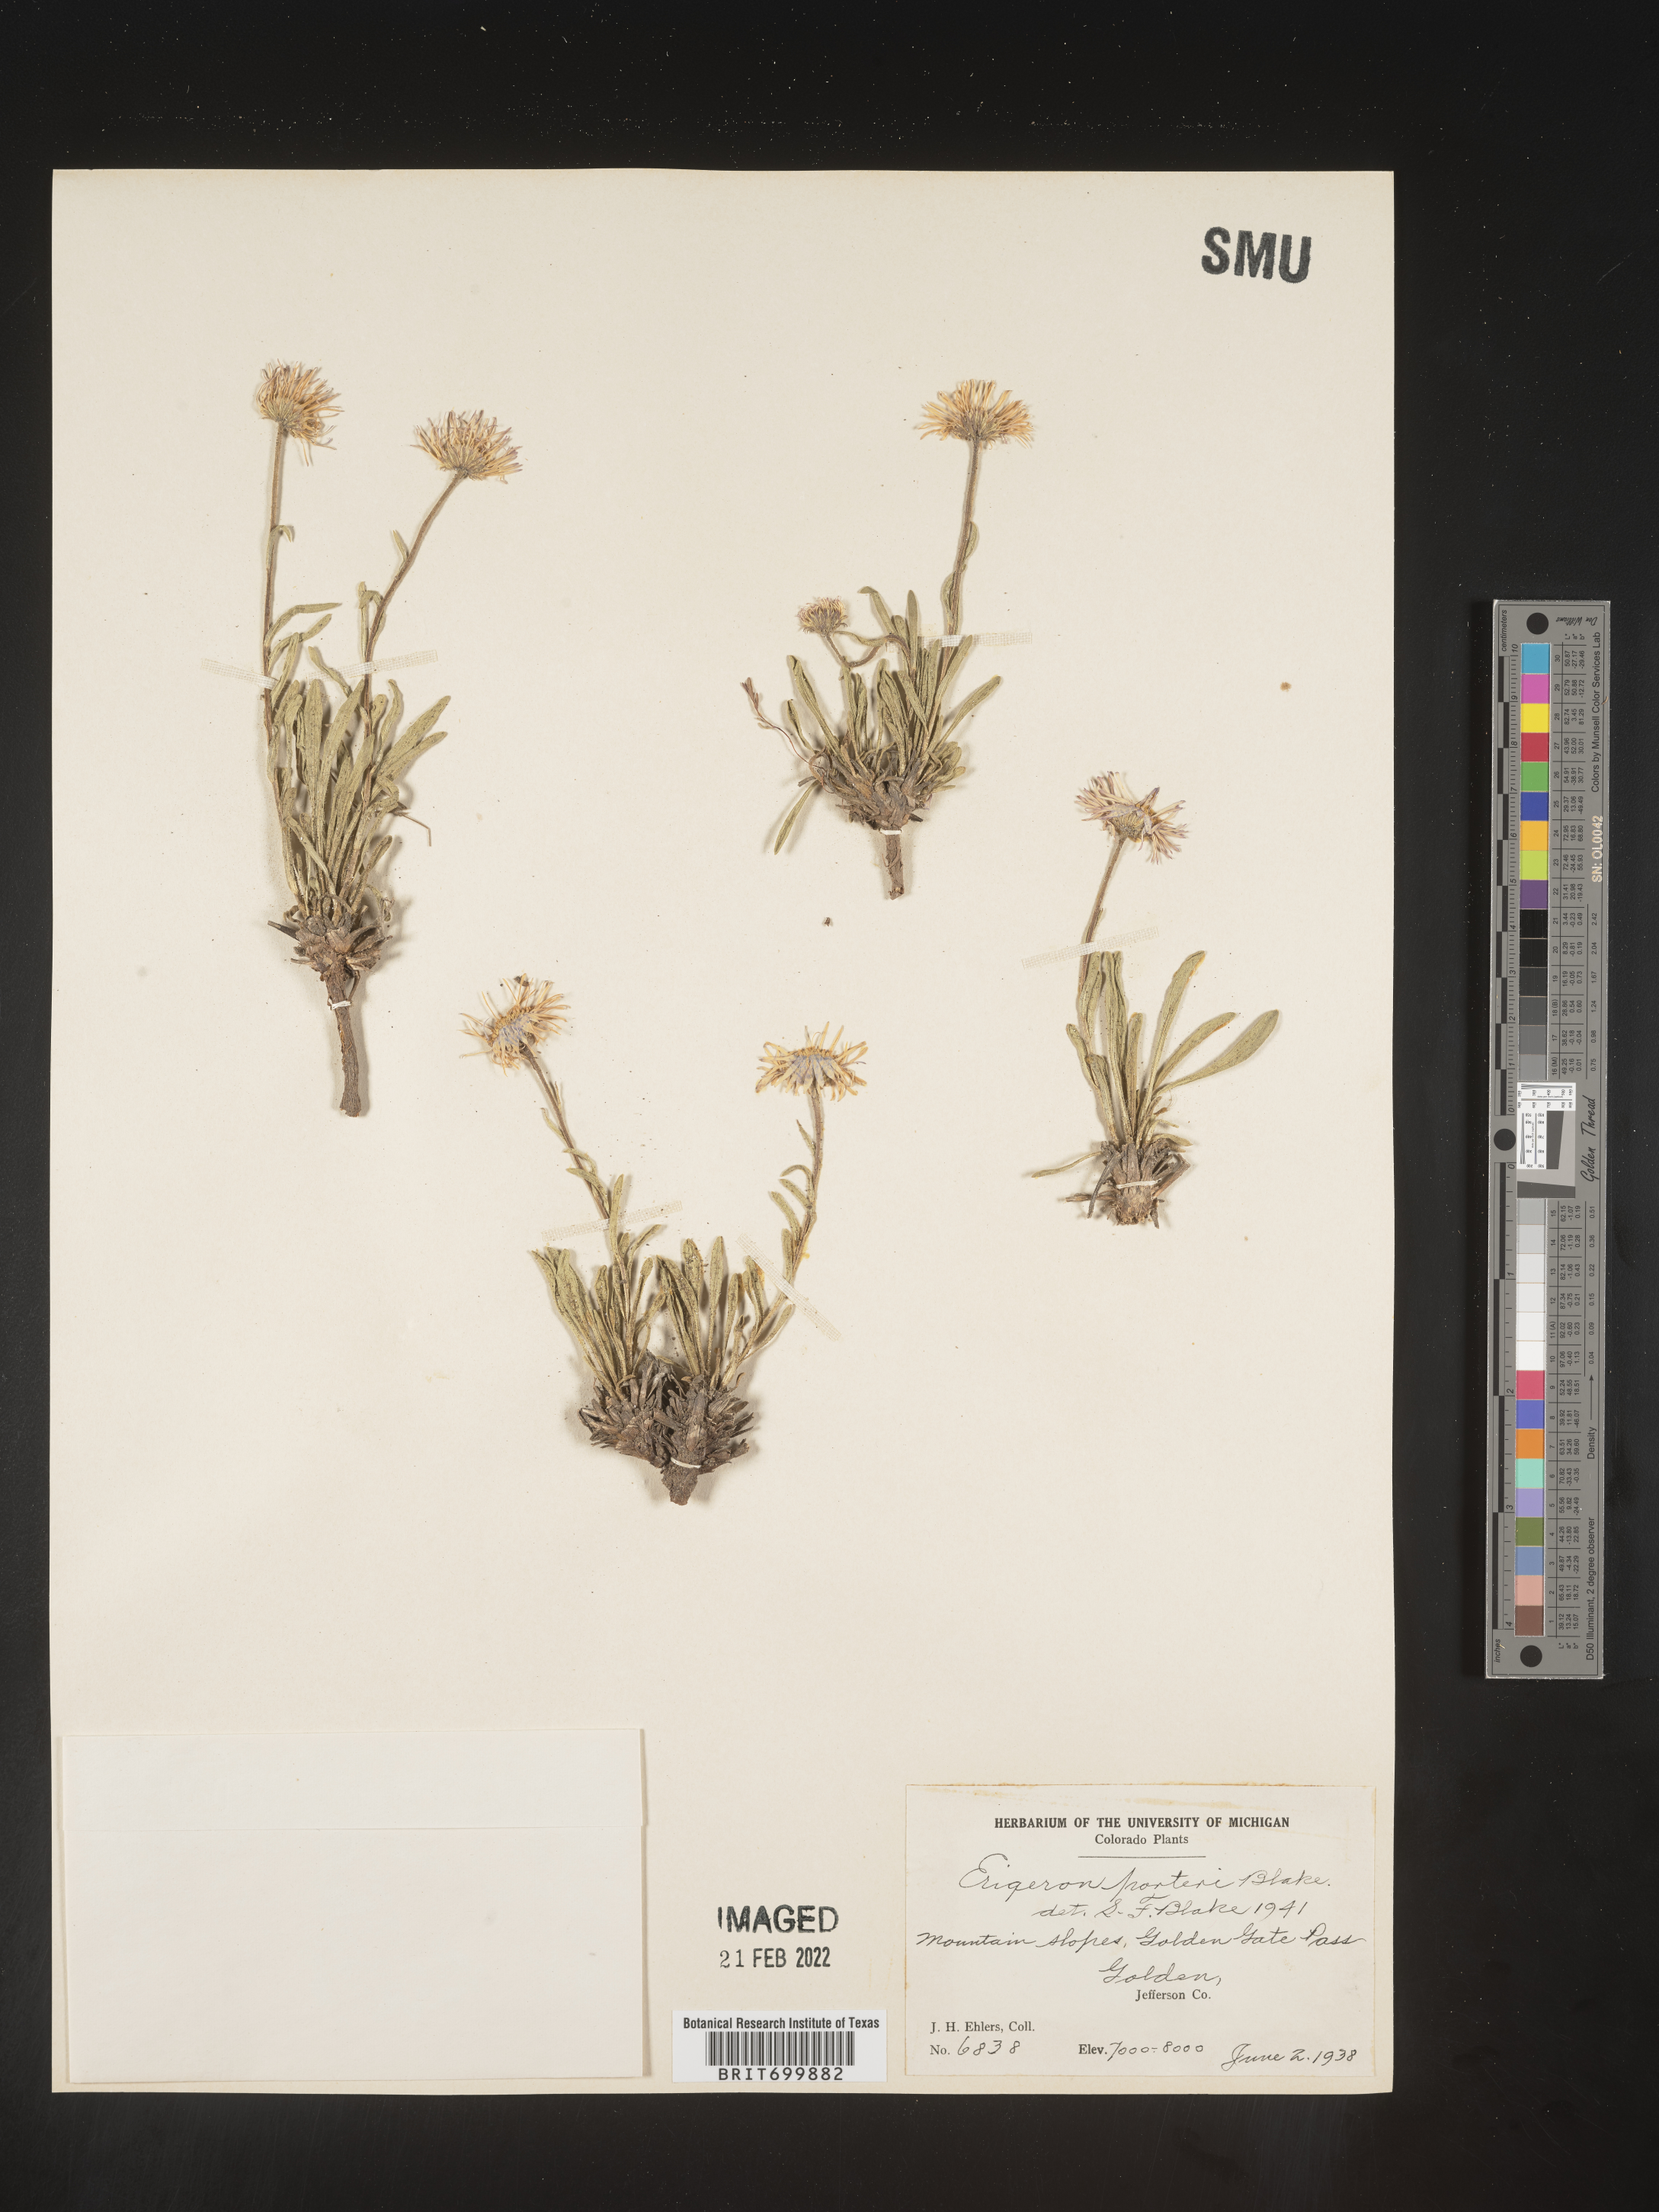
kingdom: Plantae
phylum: Tracheophyta
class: Magnoliopsida
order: Asterales
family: Asteraceae
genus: Erigeron
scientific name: Erigeron vetensis
